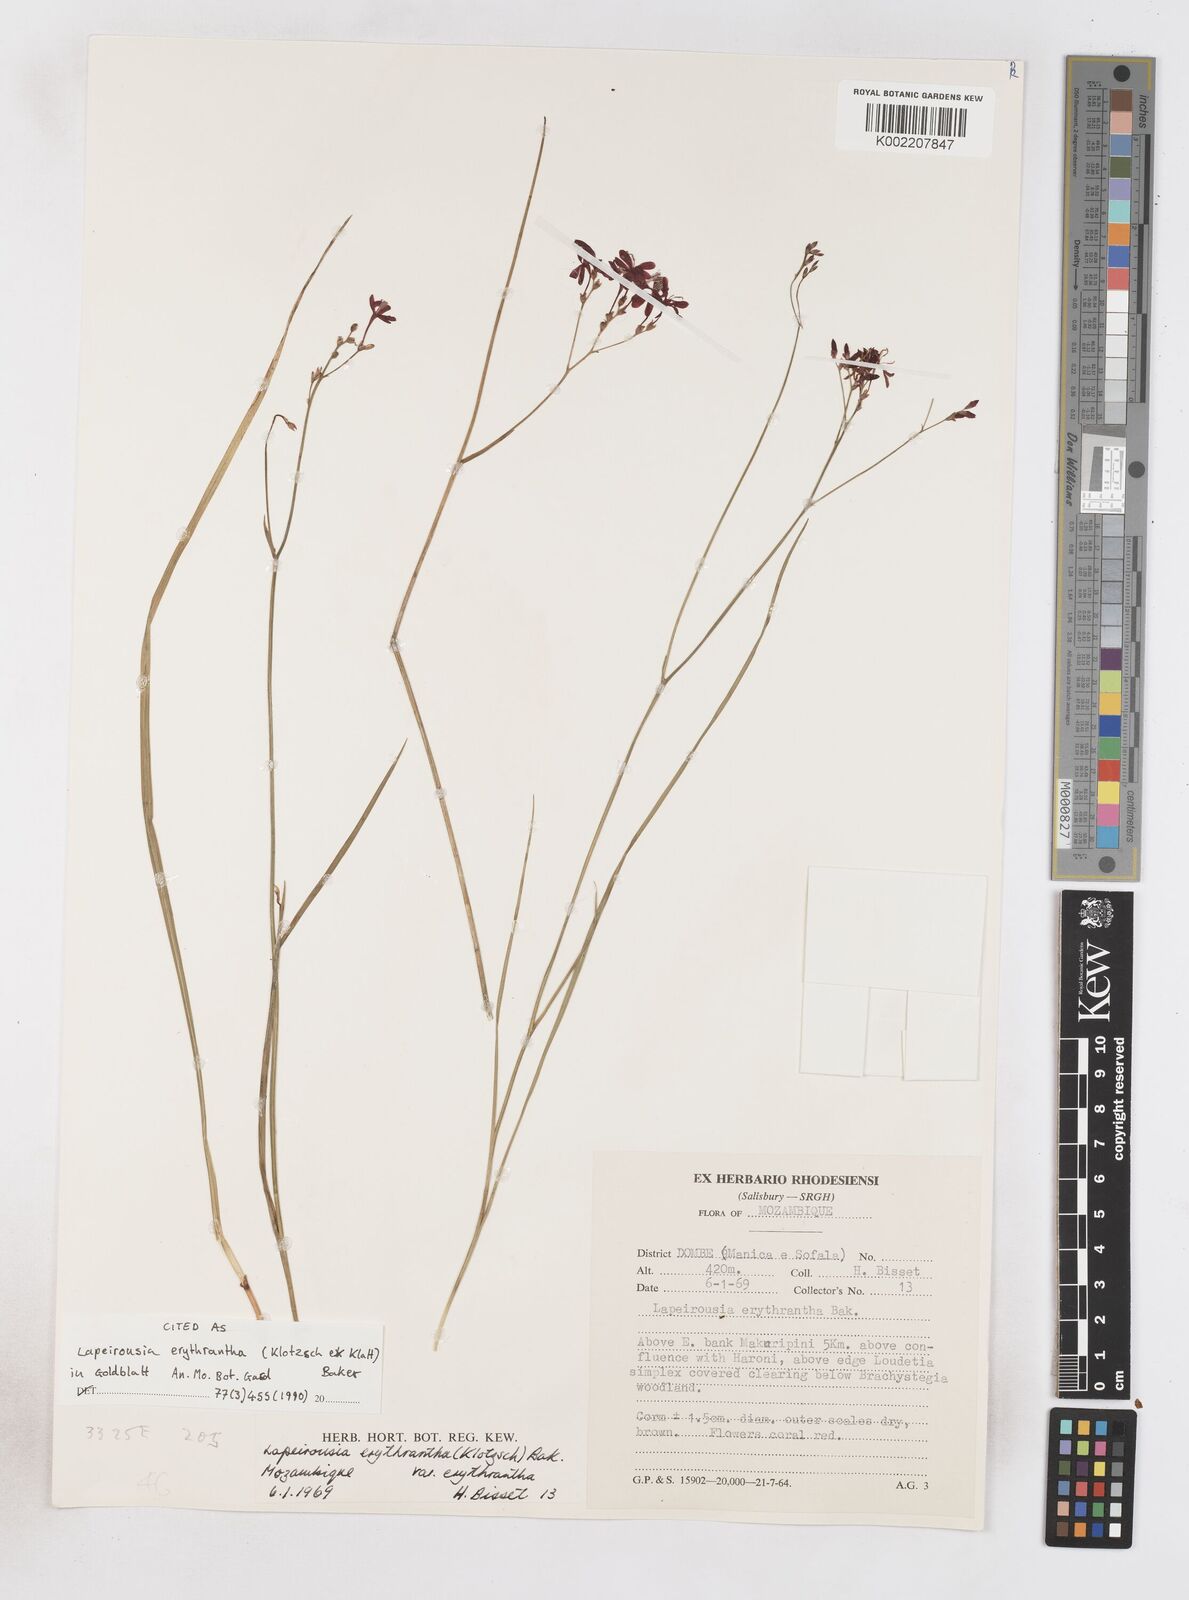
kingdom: Plantae
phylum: Tracheophyta
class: Liliopsida
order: Asparagales
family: Iridaceae
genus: Afrosolen
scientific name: Afrosolen erythranthus
